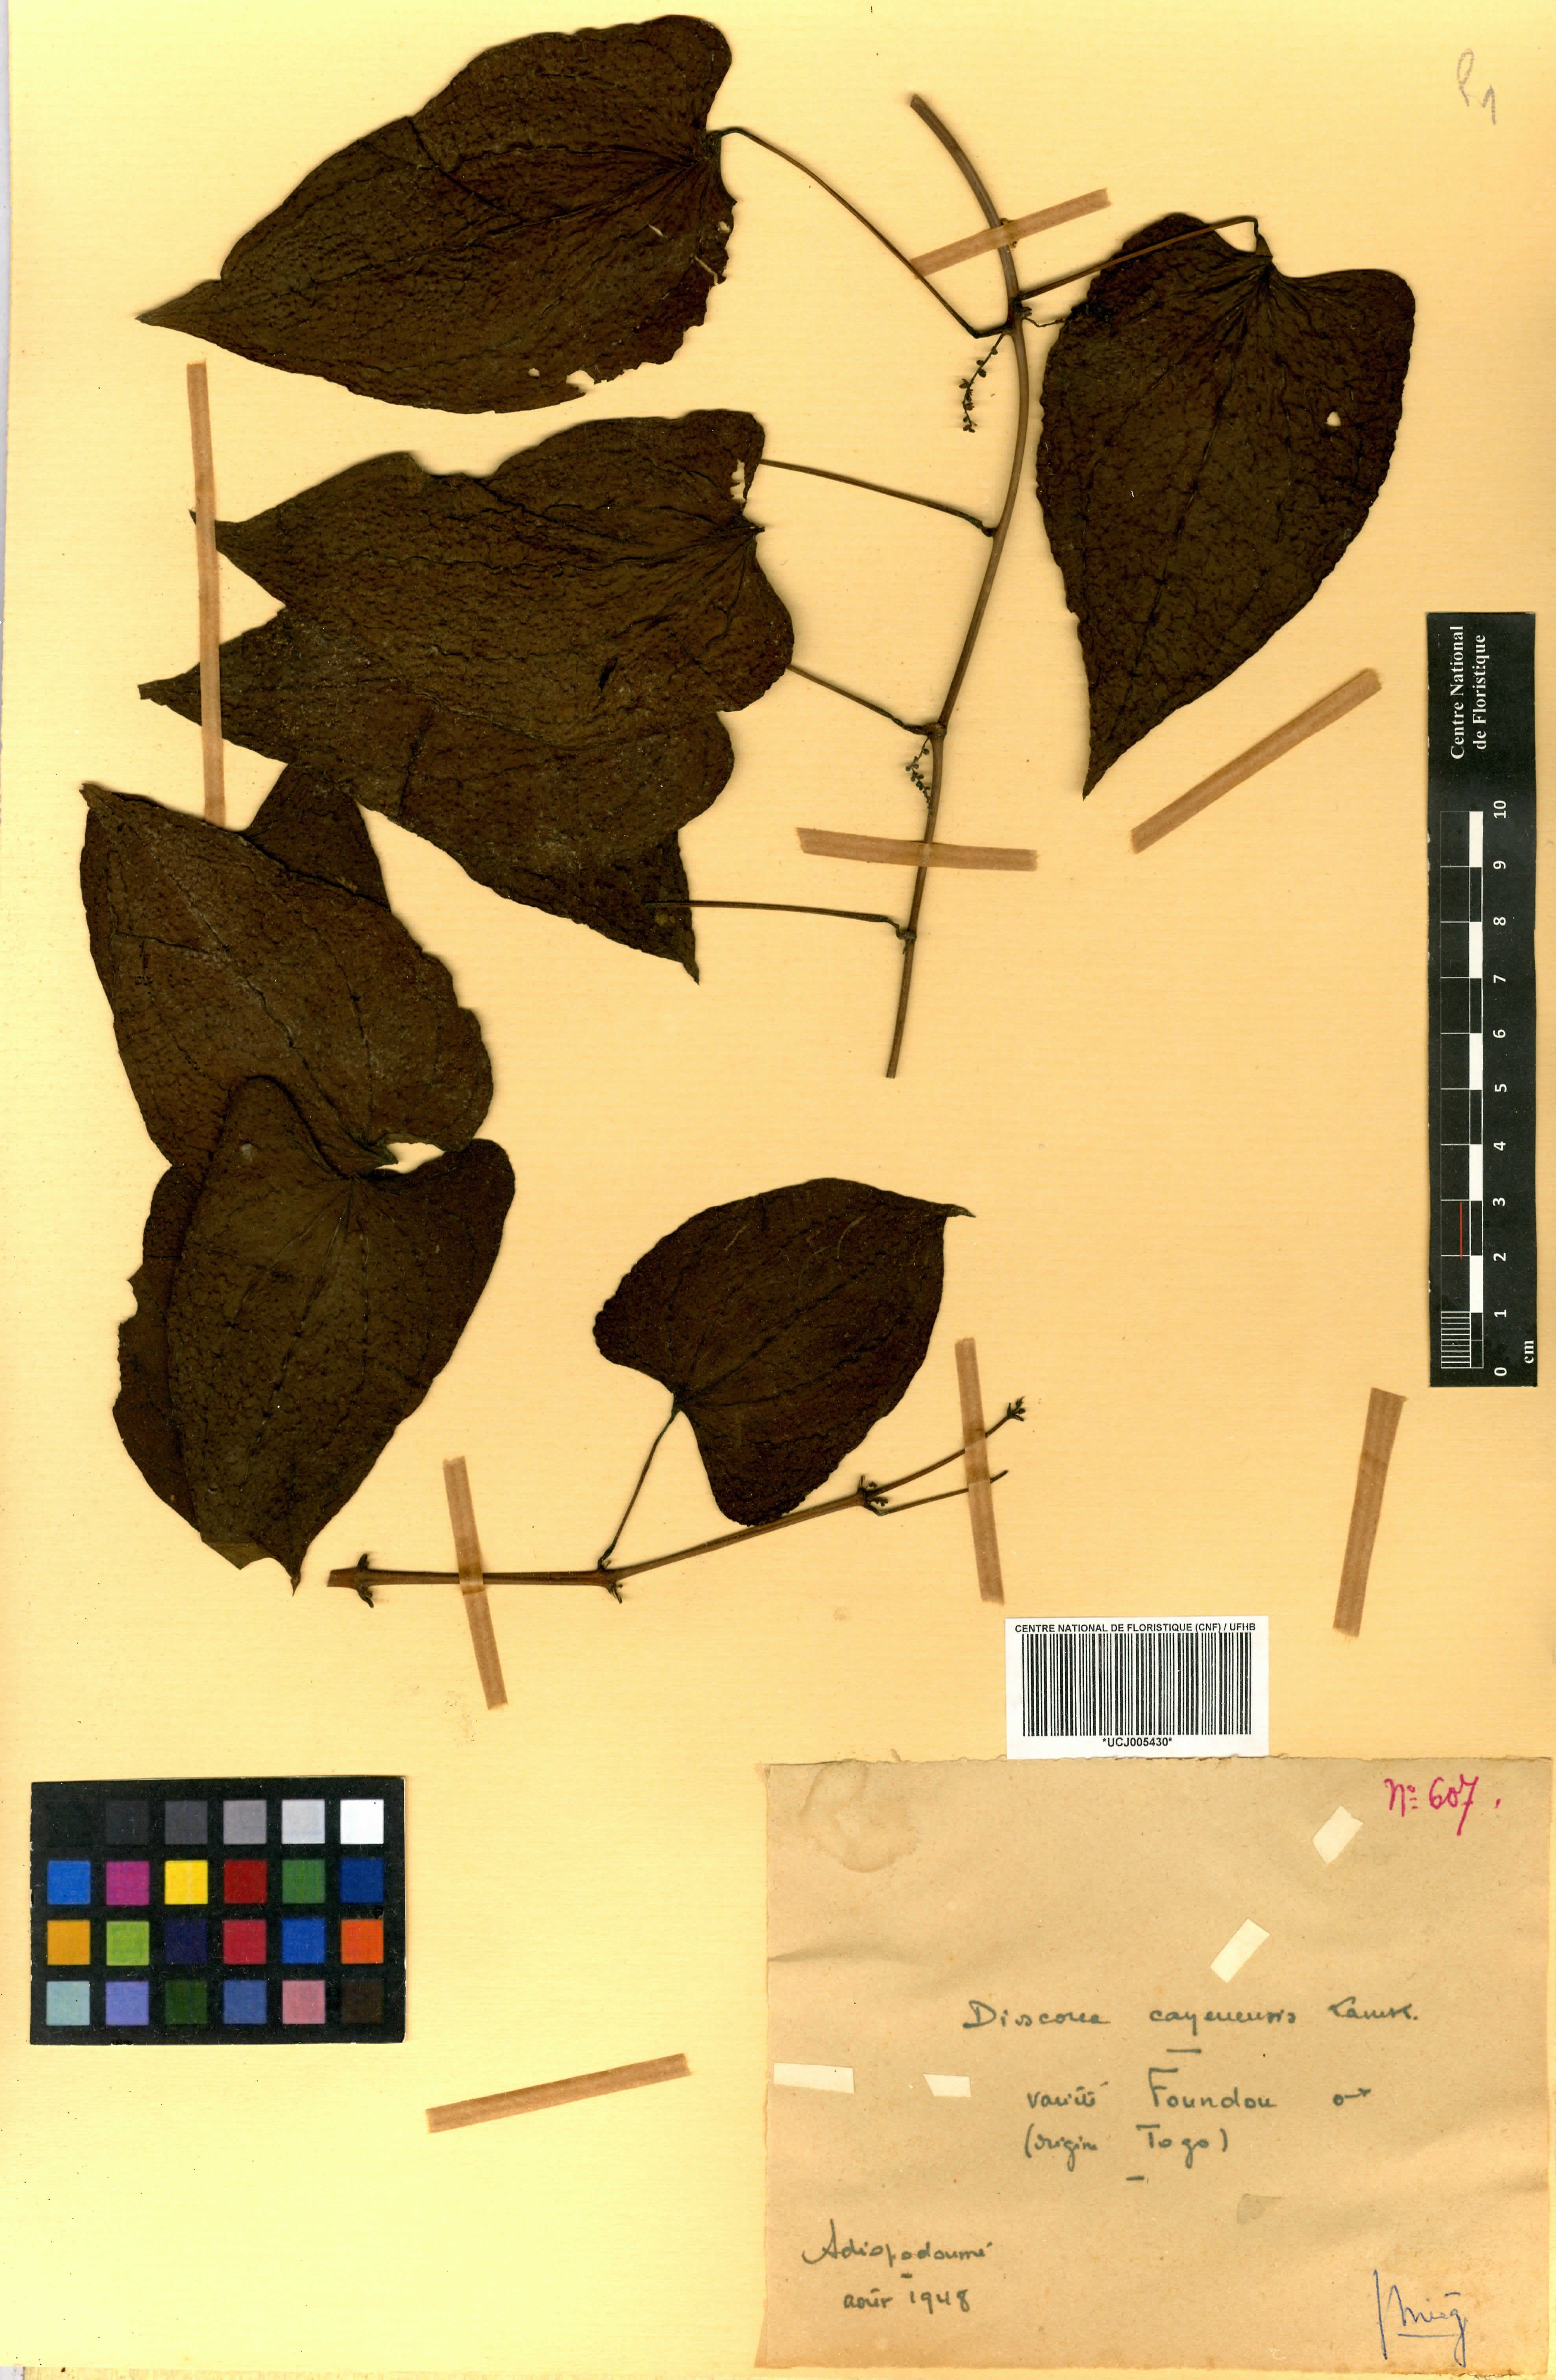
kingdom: Plantae
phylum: Tracheophyta
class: Liliopsida
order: Dioscoreales
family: Dioscoreaceae
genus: Dioscorea
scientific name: Dioscorea cayenensis
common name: Attoto yam
